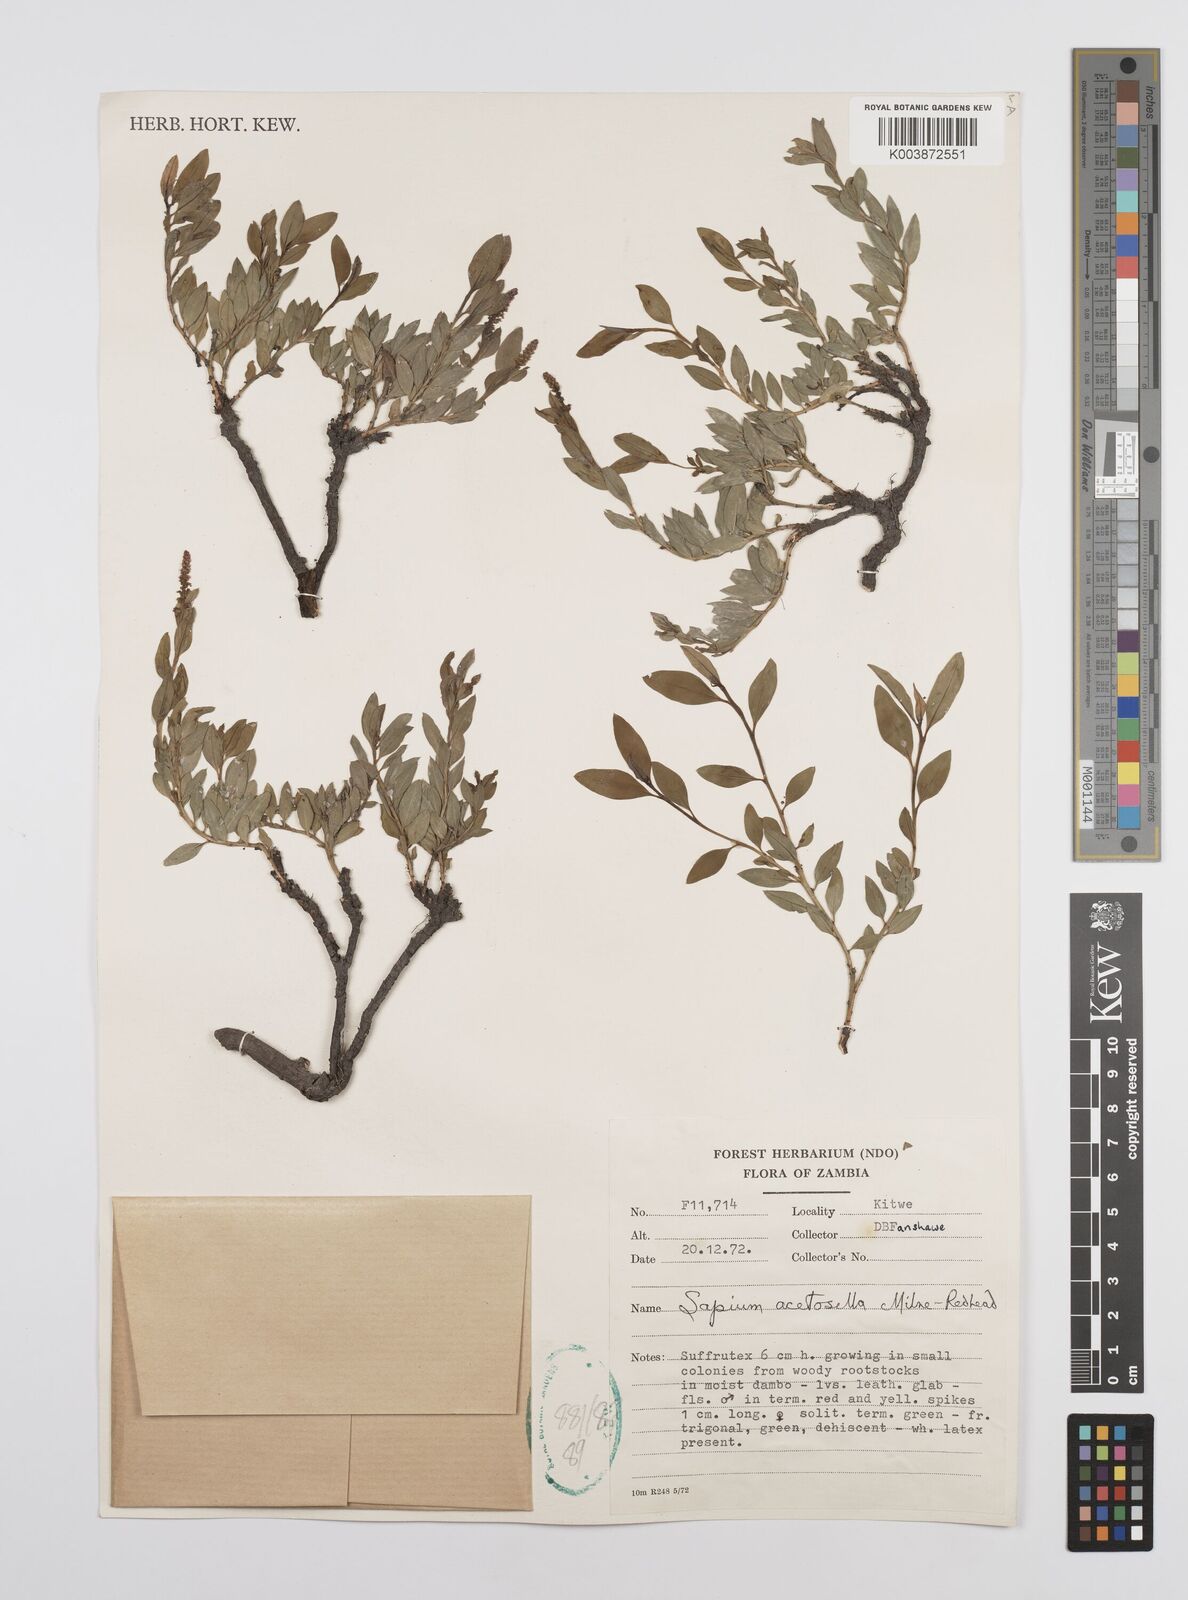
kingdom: Plantae
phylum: Tracheophyta
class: Magnoliopsida
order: Malpighiales
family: Euphorbiaceae
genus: Microstachys
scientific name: Microstachys acetosella
